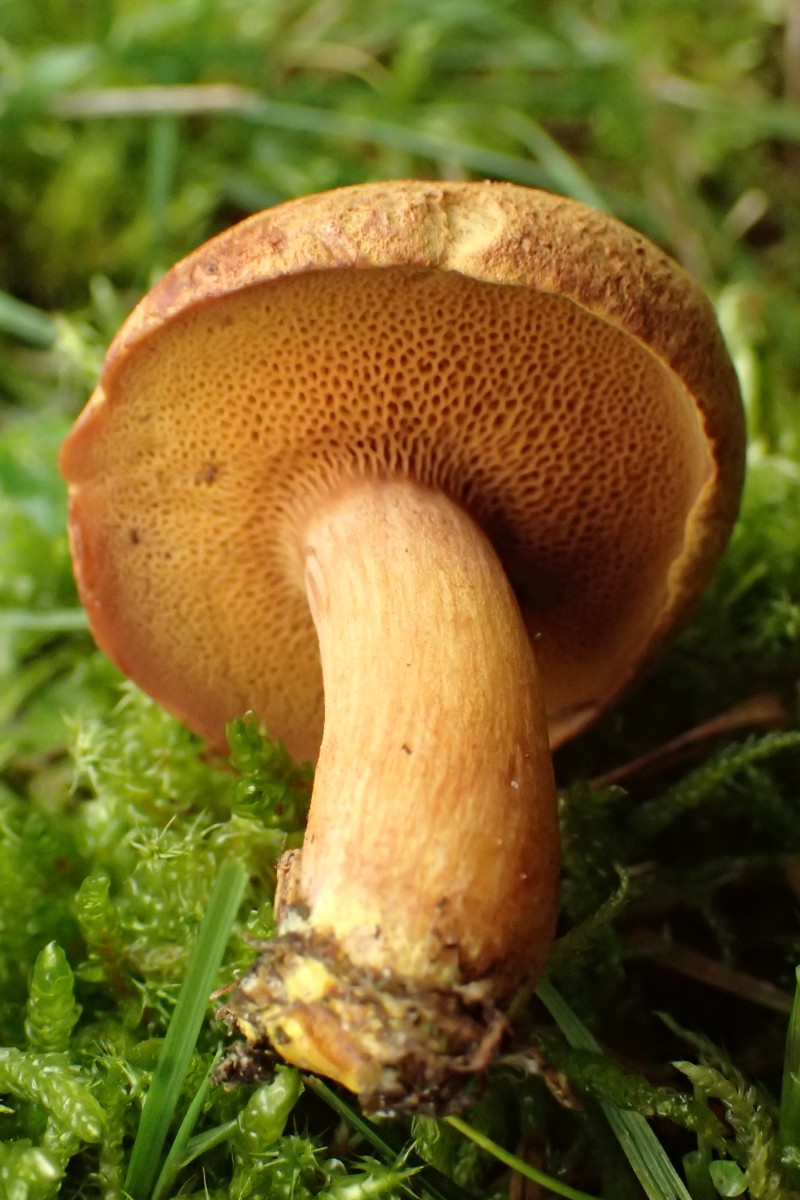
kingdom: Fungi
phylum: Basidiomycota
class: Agaricomycetes
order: Boletales
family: Boletaceae
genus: Chalciporus
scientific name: Chalciporus piperatus
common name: peberrørhat
